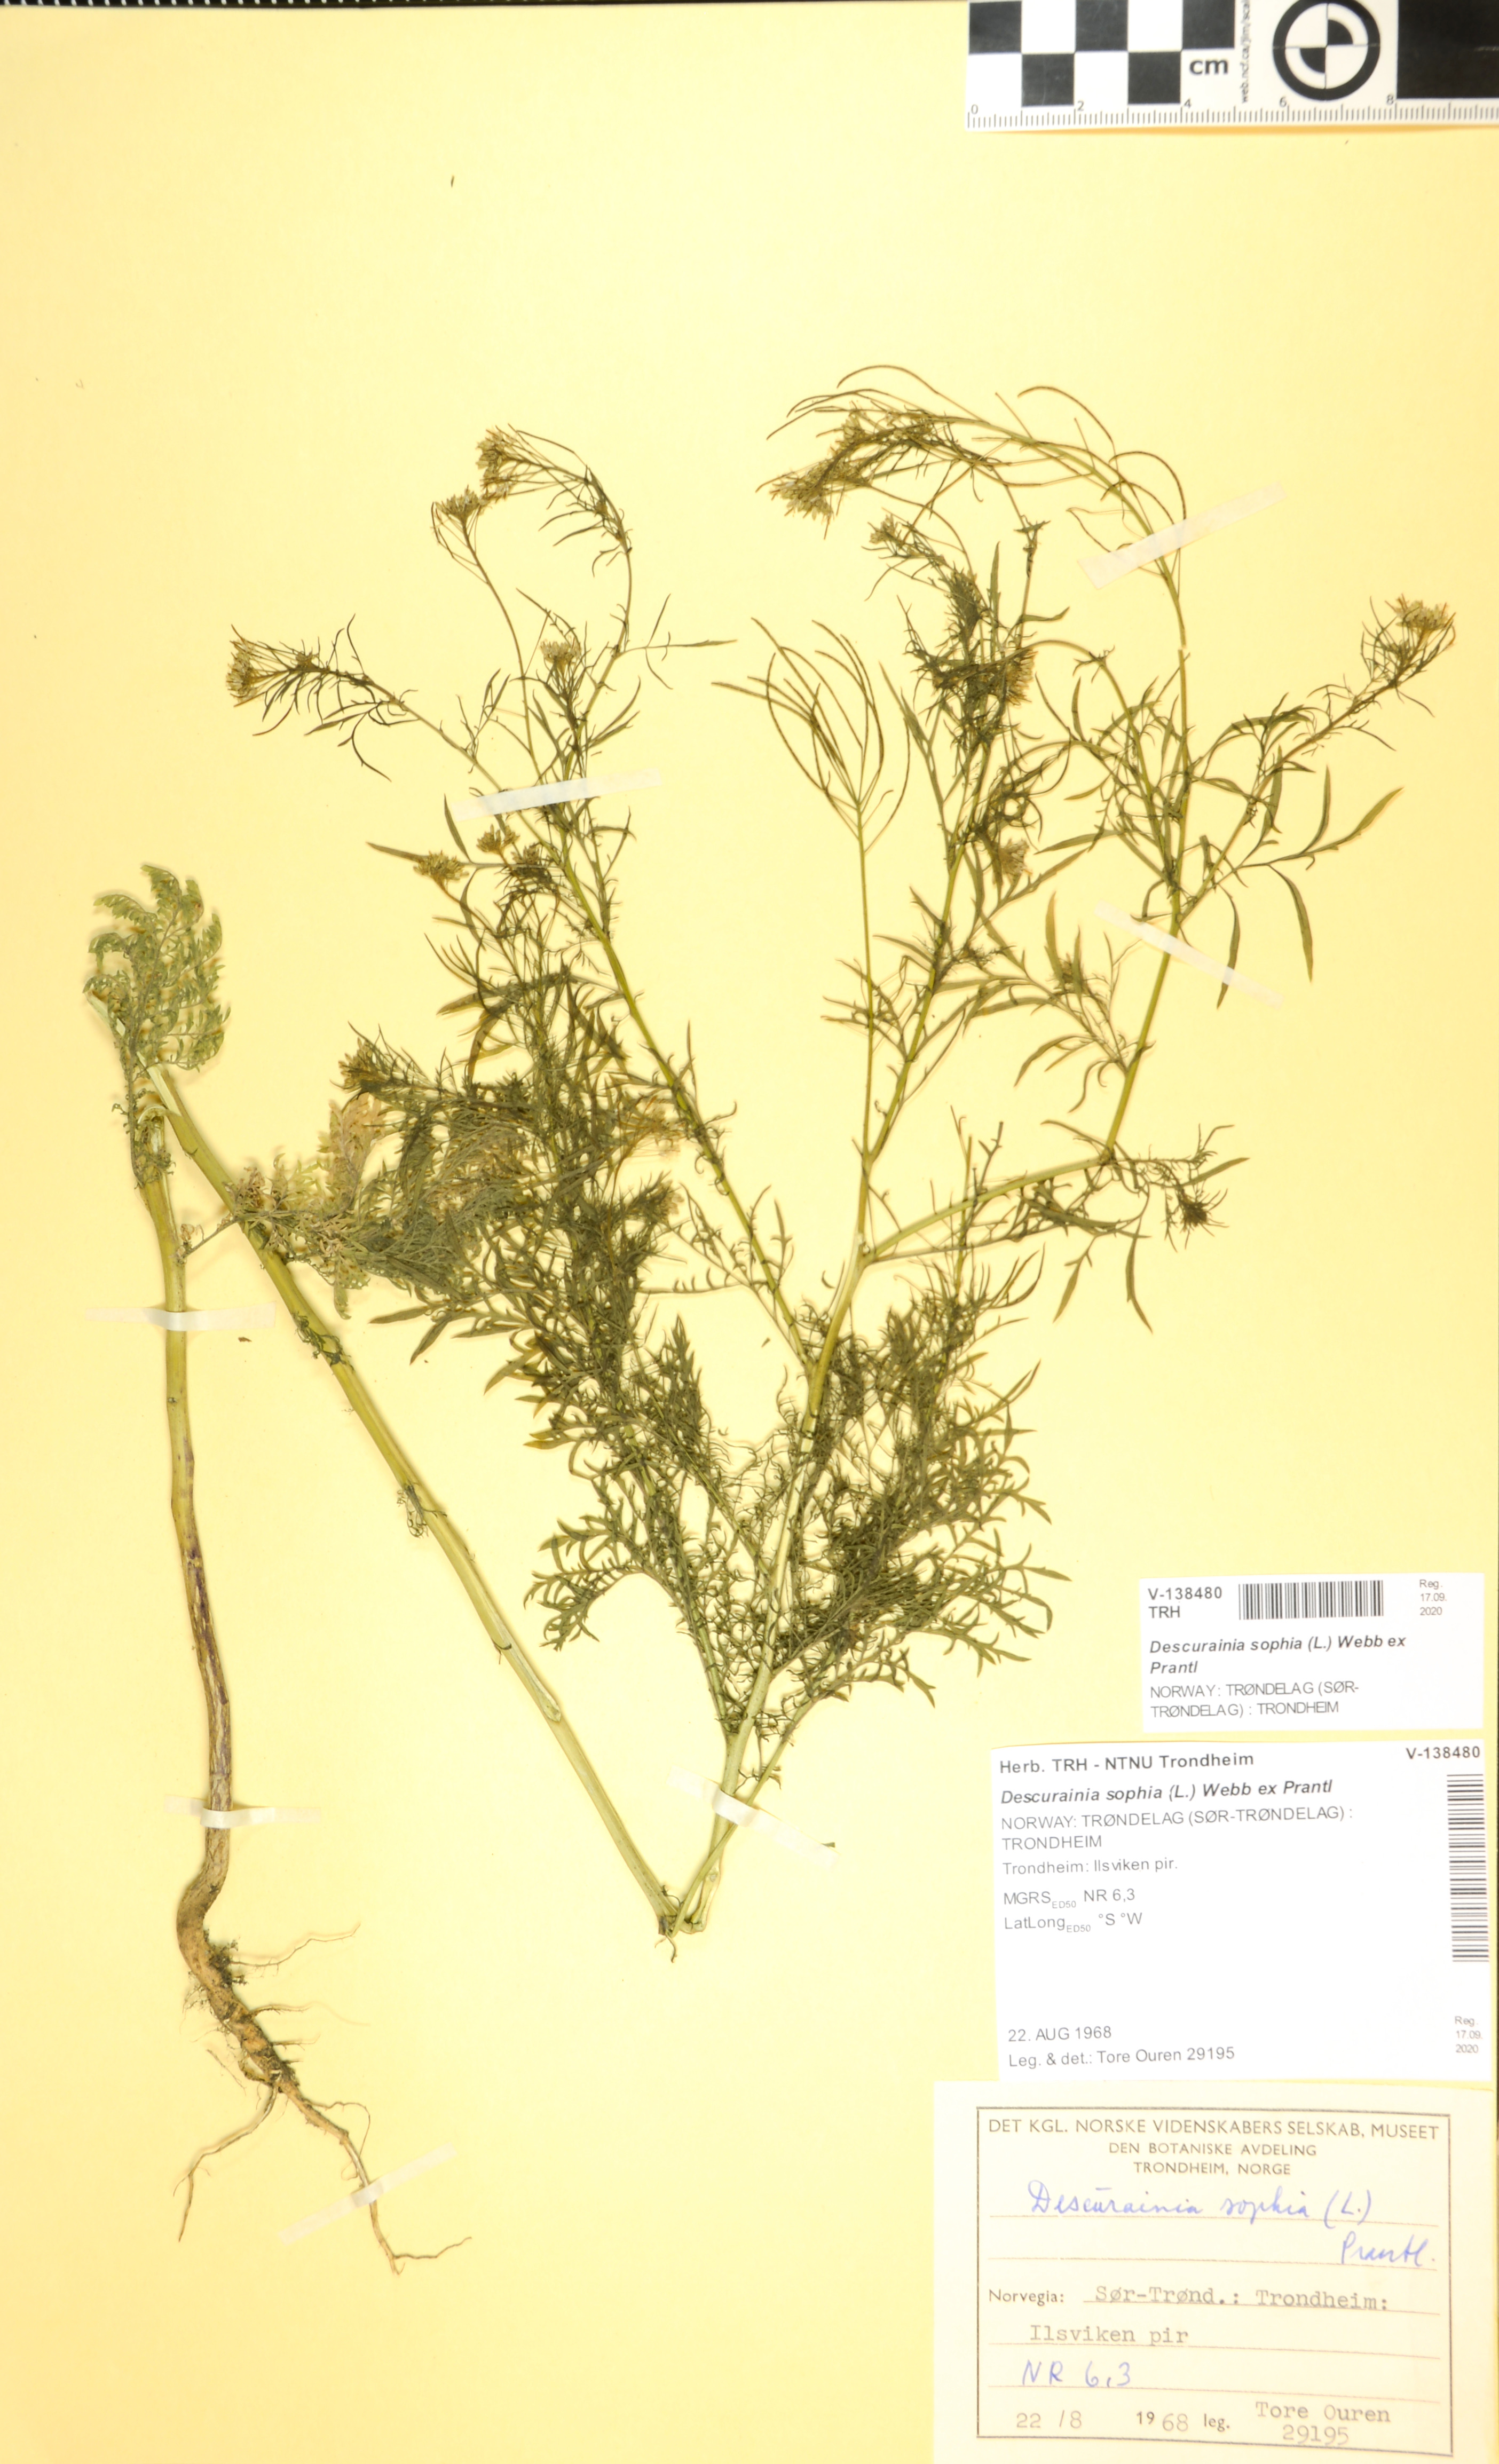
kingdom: Plantae
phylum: Tracheophyta
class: Magnoliopsida
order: Brassicales
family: Brassicaceae
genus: Descurainia
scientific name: Descurainia sophia
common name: Flixweed
